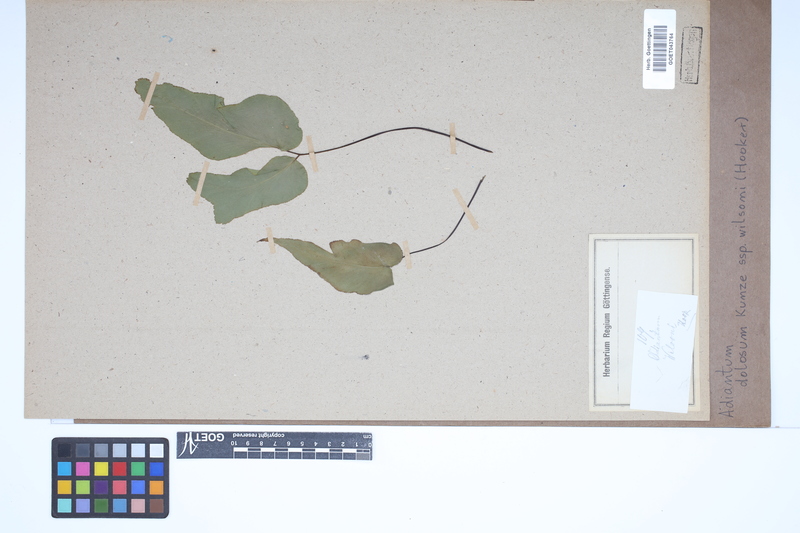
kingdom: Plantae
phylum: Tracheophyta
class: Polypodiopsida
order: Polypodiales
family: Pteridaceae
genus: Adiantum
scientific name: Adiantum dolosum
